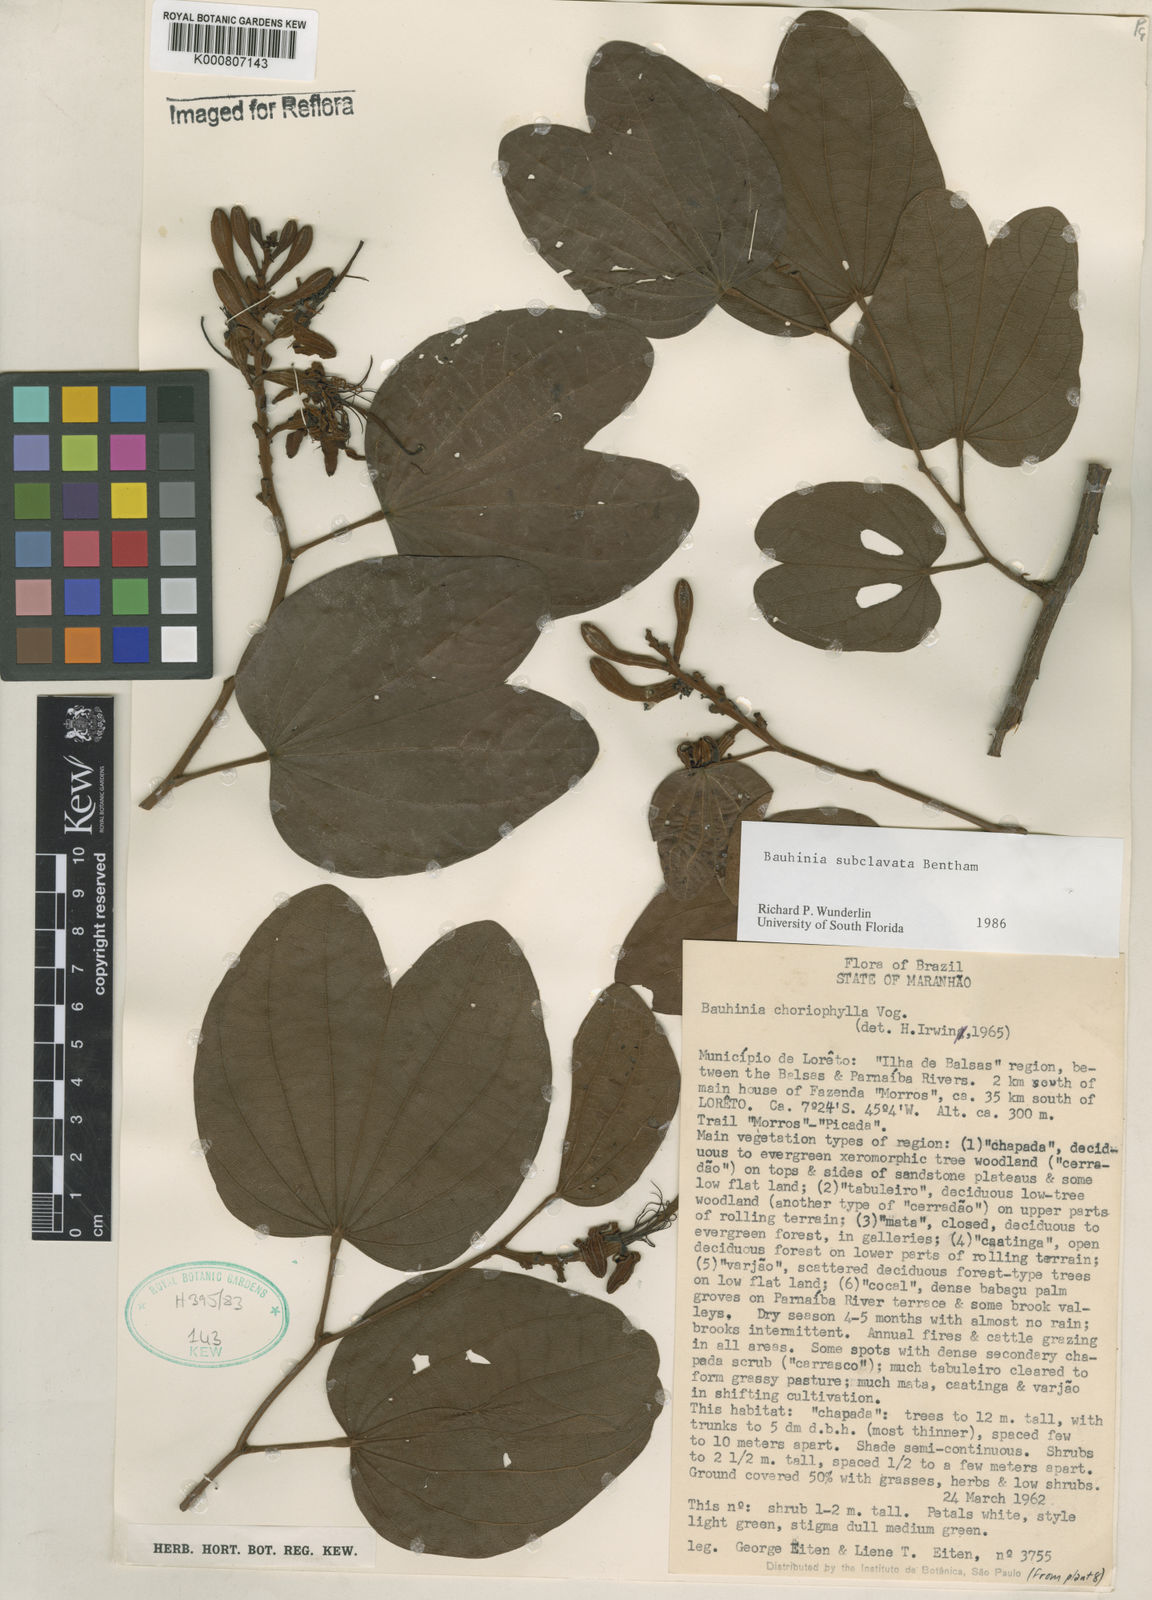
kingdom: Plantae
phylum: Tracheophyta
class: Magnoliopsida
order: Fabales
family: Fabaceae
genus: Bauhinia
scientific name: Bauhinia subclavata
